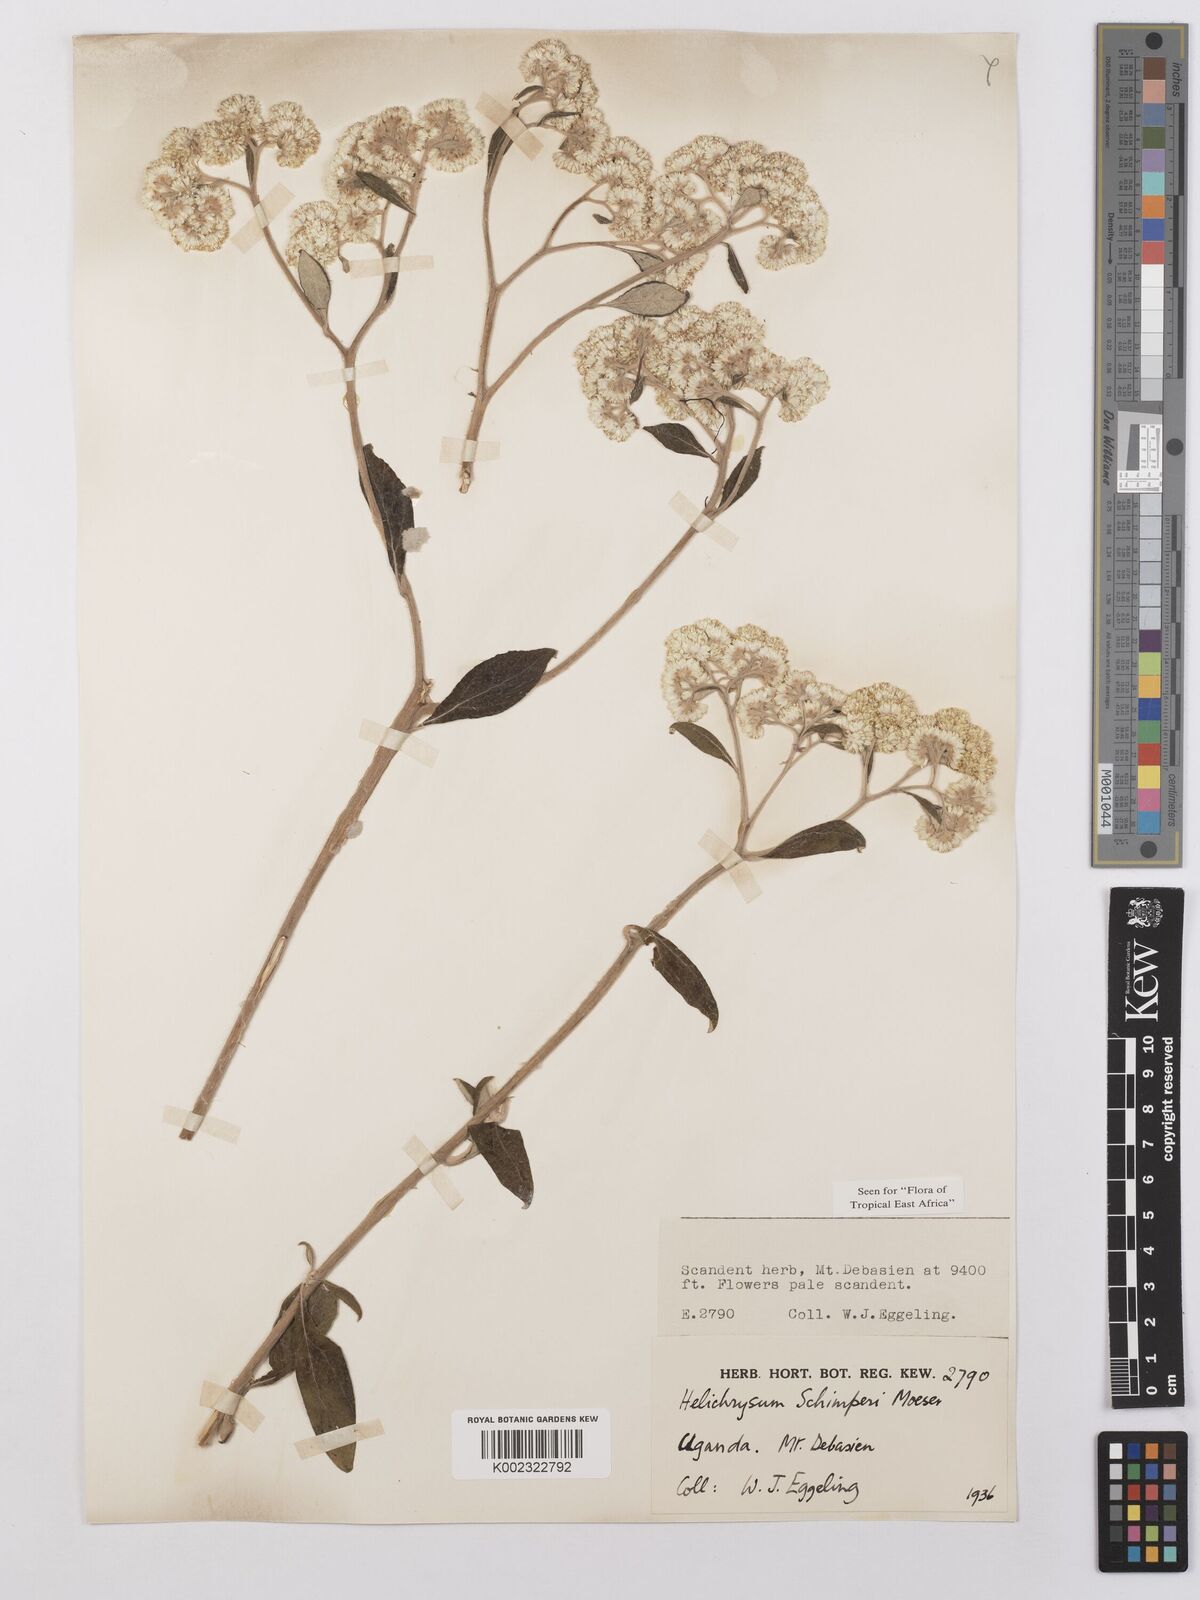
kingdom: Plantae
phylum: Tracheophyta
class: Magnoliopsida
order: Asterales
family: Asteraceae
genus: Helichrysum
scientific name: Helichrysum schimperi
